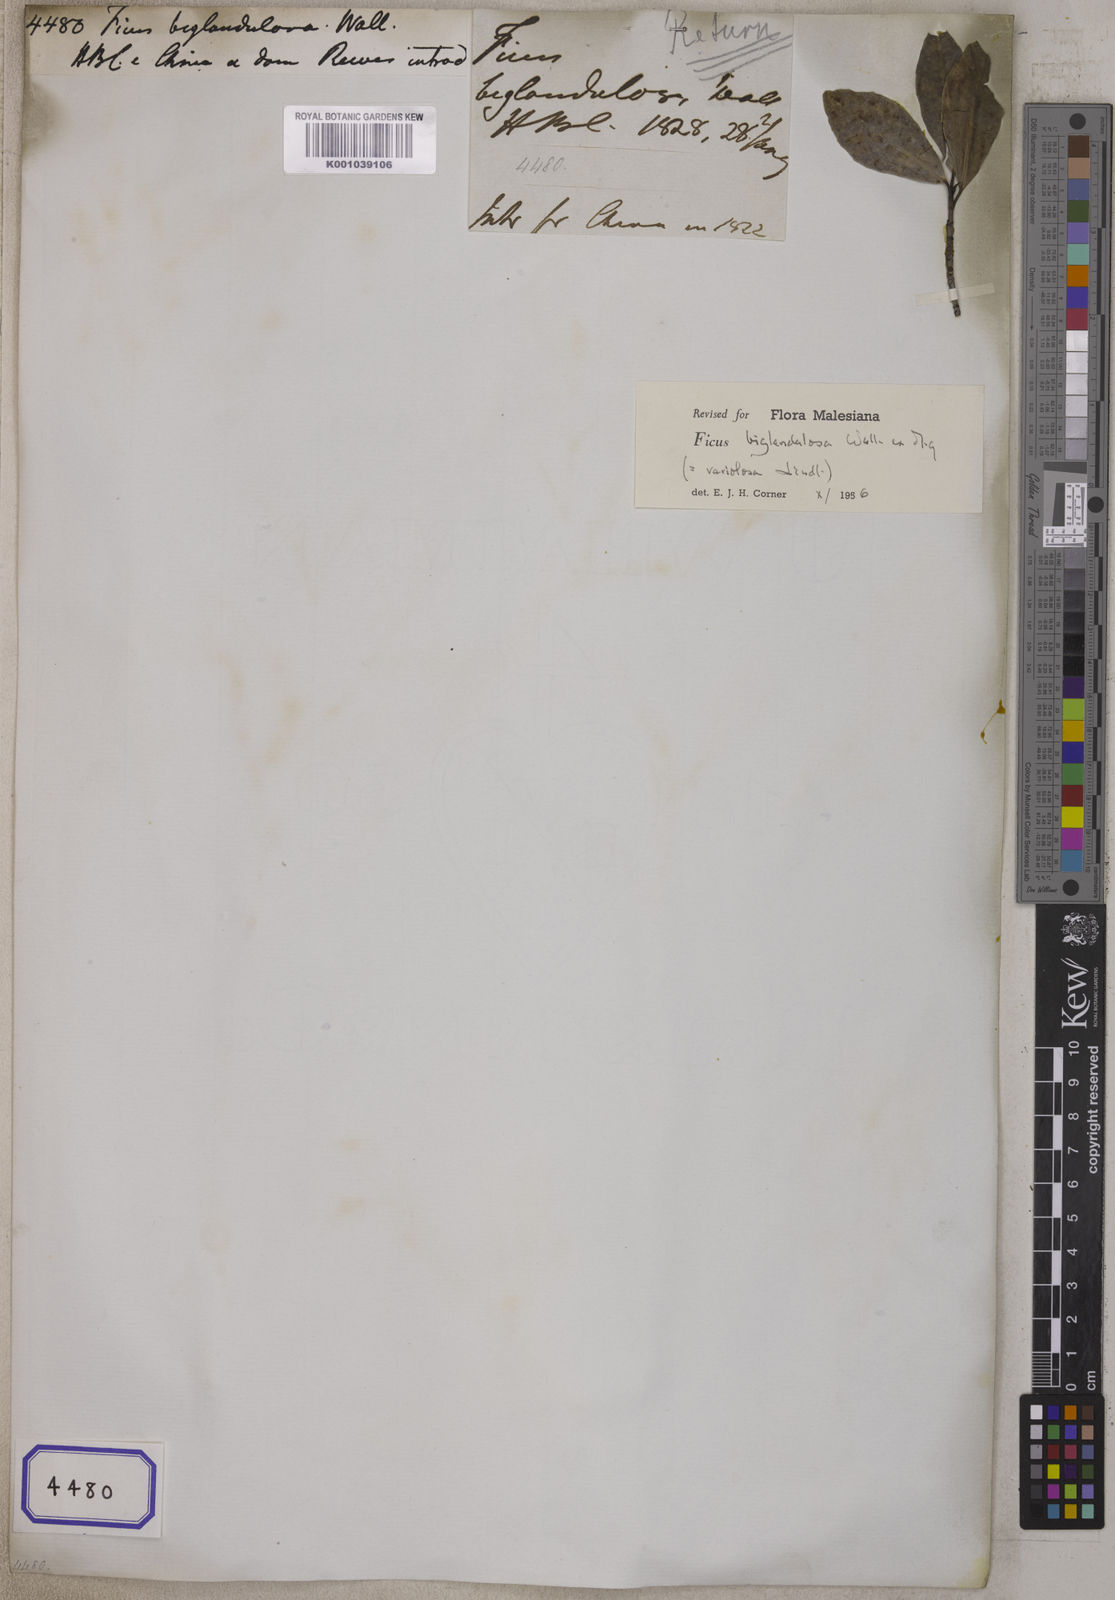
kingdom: Plantae
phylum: Tracheophyta
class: Magnoliopsida
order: Rosales
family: Moraceae
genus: Ficus
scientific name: Ficus
